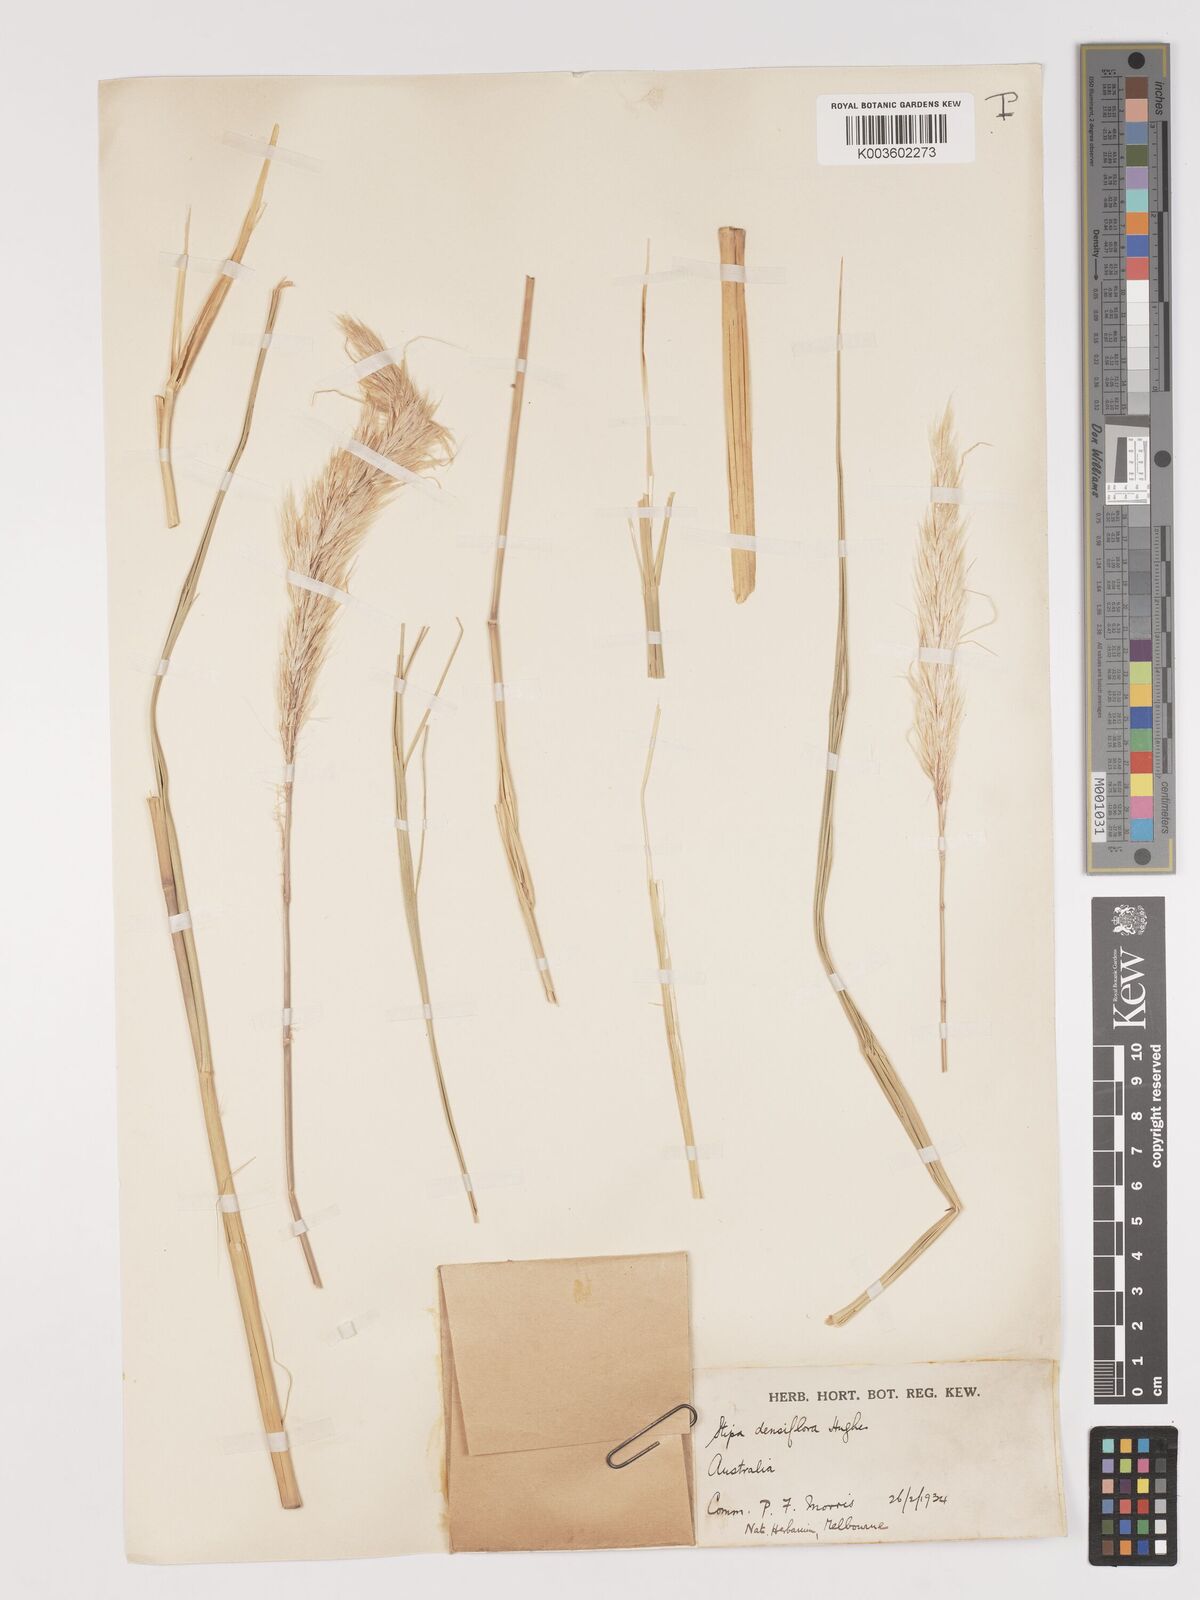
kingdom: Plantae
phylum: Tracheophyta
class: Liliopsida
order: Poales
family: Poaceae
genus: Stipa
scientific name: Stipa
